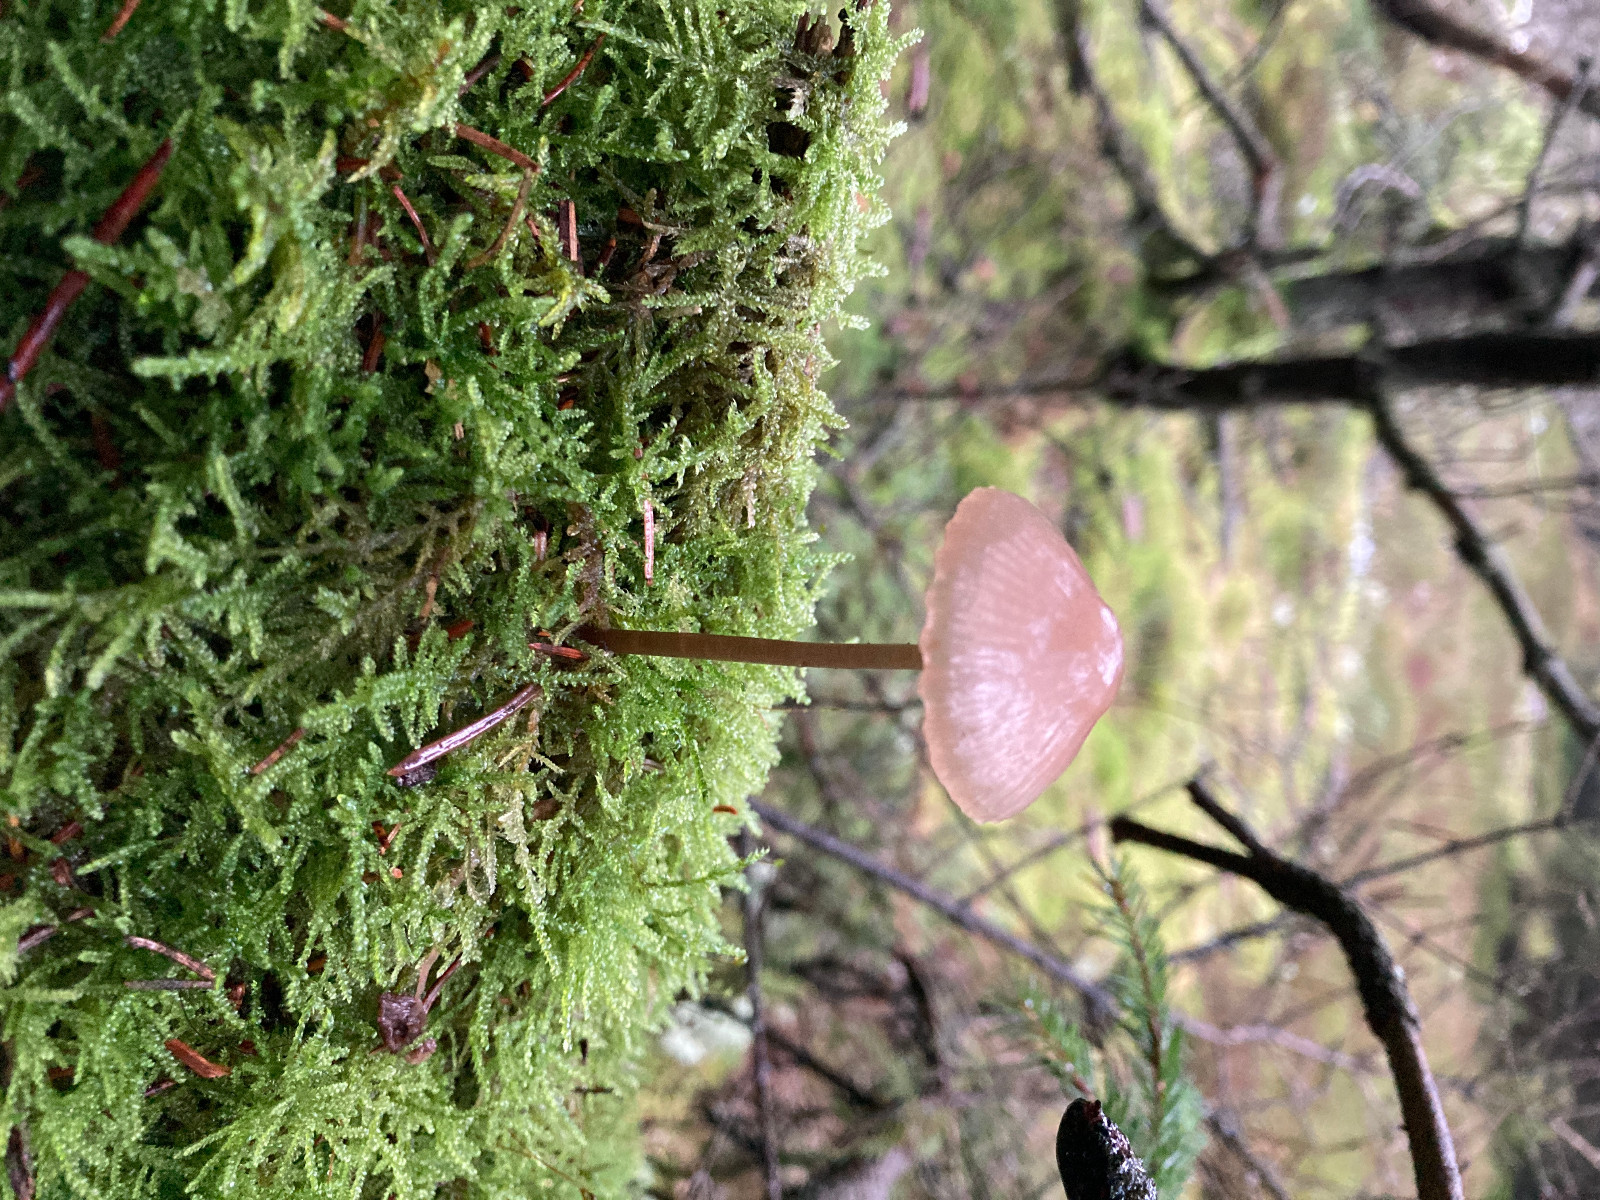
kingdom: Fungi
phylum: Basidiomycota
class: Agaricomycetes
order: Agaricales
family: Mycenaceae
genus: Mycena
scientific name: Mycena
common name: huesvamp
